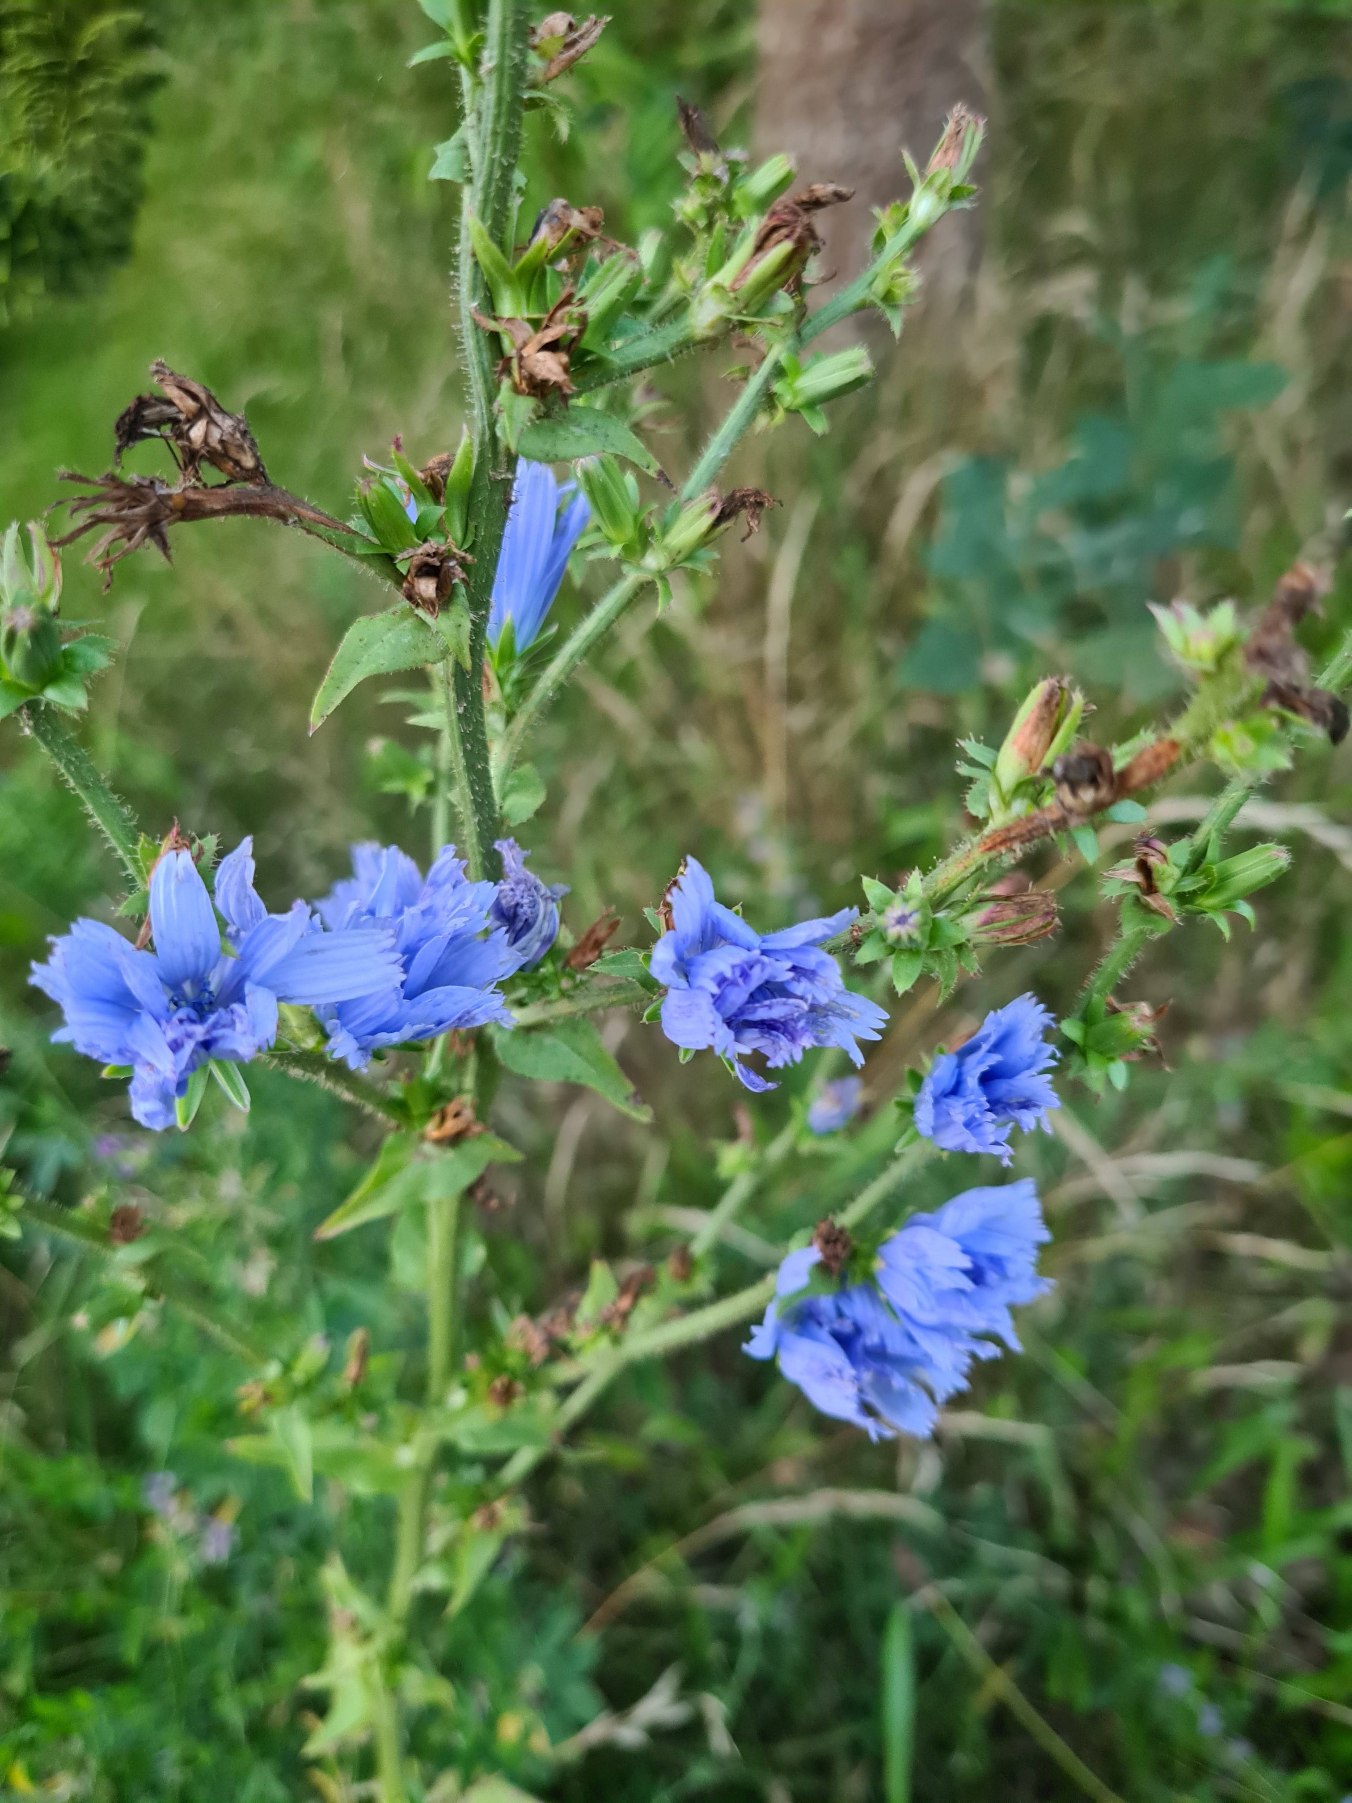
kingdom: Plantae
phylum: Tracheophyta
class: Magnoliopsida
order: Asterales
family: Asteraceae
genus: Cichorium
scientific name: Cichorium intybus
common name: Cikorie
